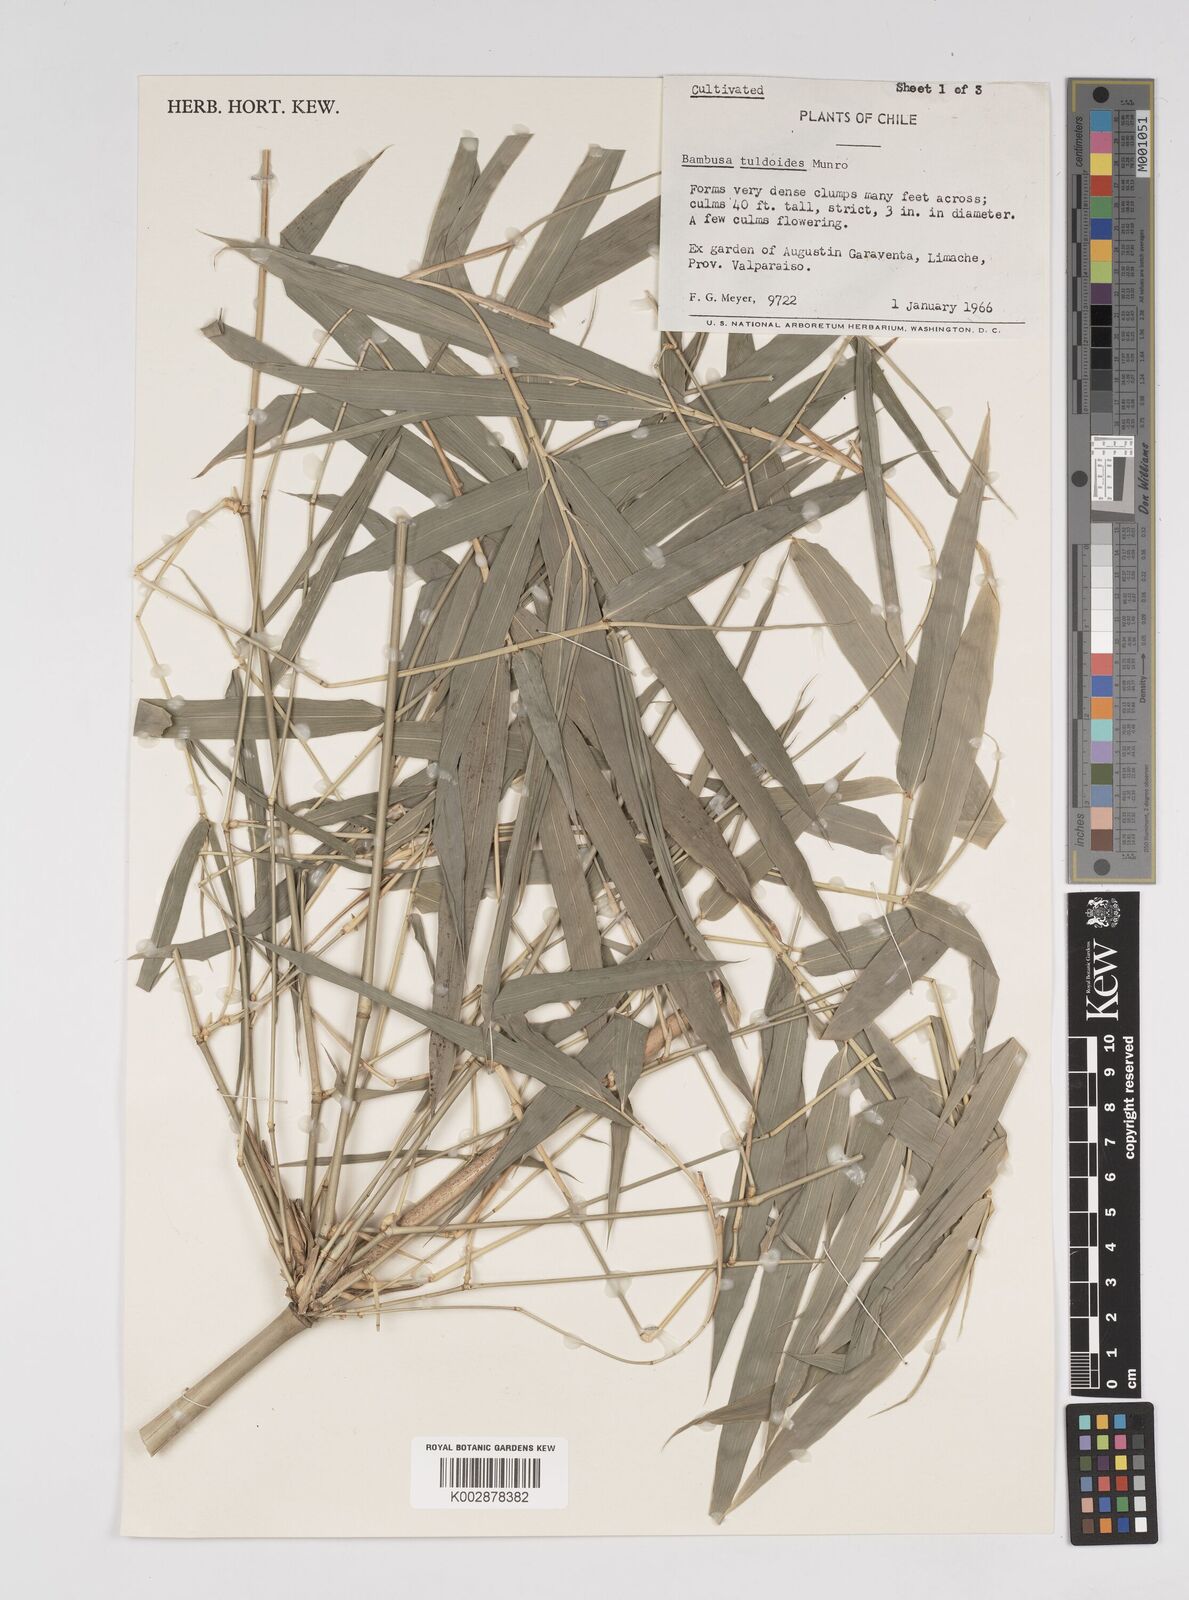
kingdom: Plantae
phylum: Tracheophyta
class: Liliopsida
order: Poales
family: Poaceae
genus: Bambusa
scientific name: Bambusa tuldoides
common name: Verdant bamboo
